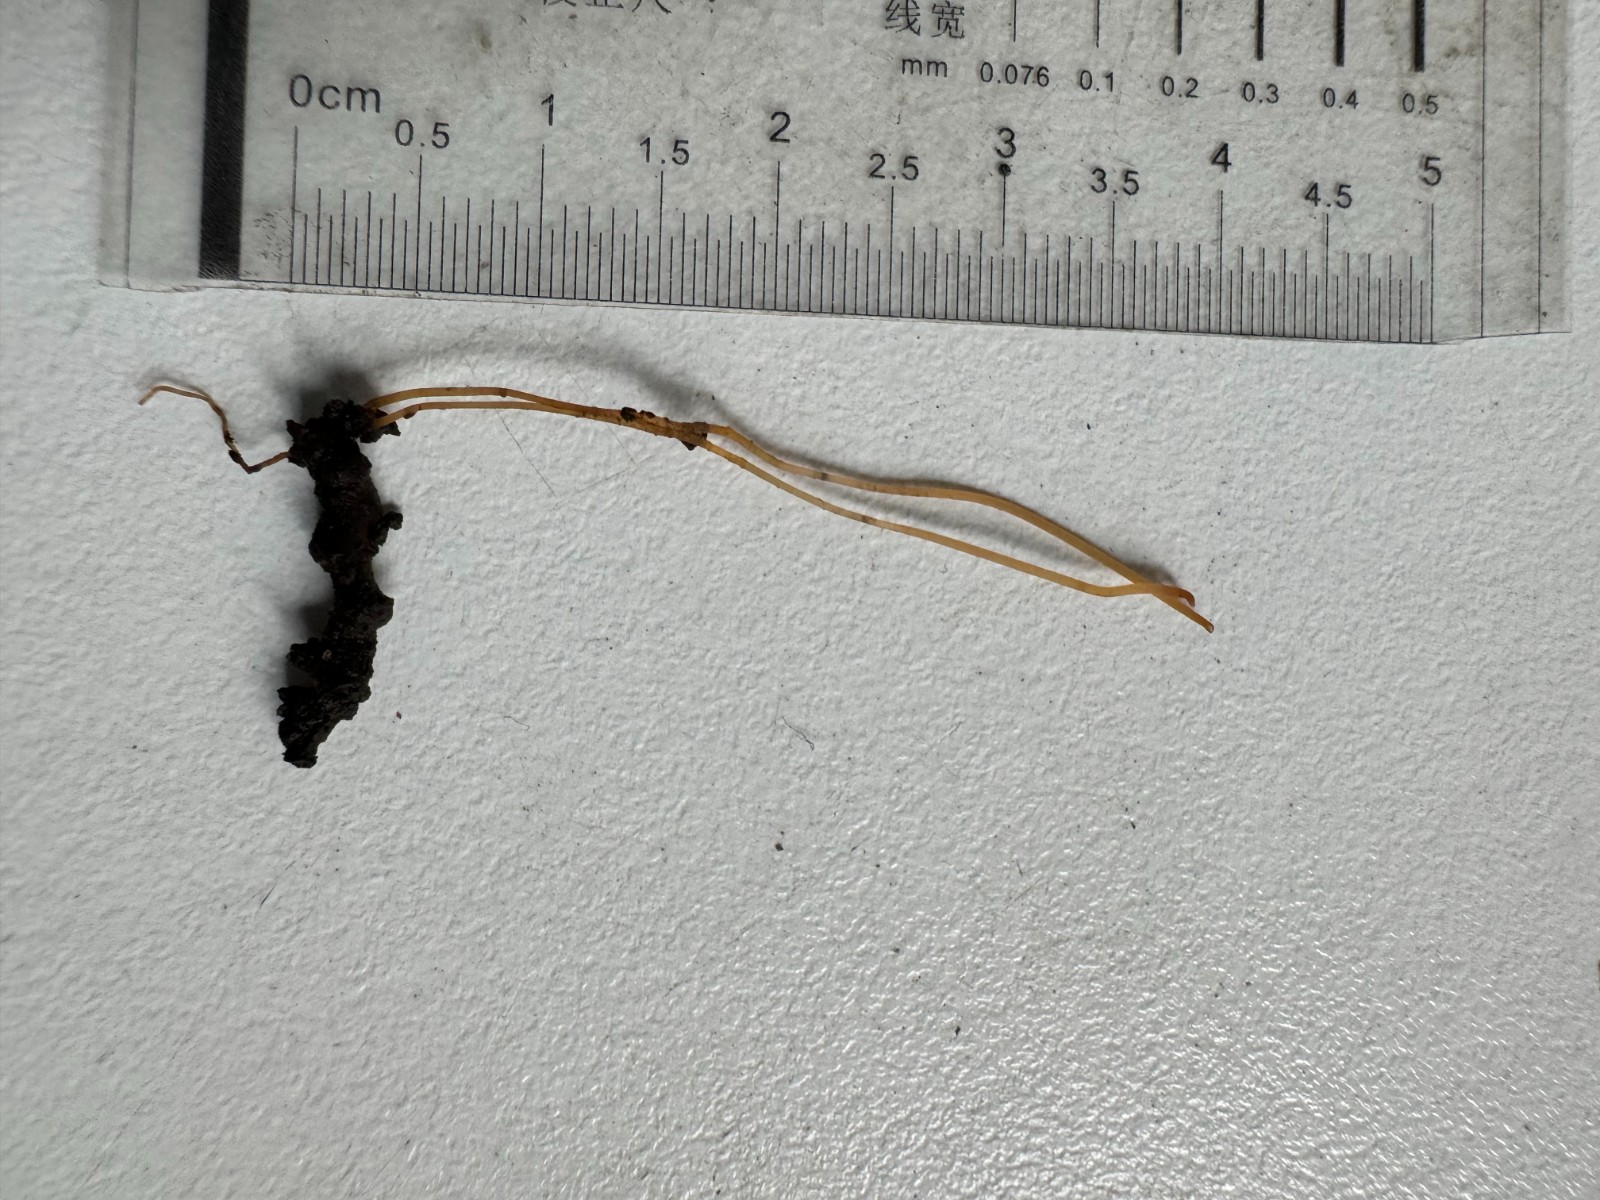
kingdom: Fungi
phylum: Basidiomycota
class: Agaricomycetes
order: Agaricales
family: Typhulaceae
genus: Typhula
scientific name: Typhula juncea
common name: trådagtig rørkølle
